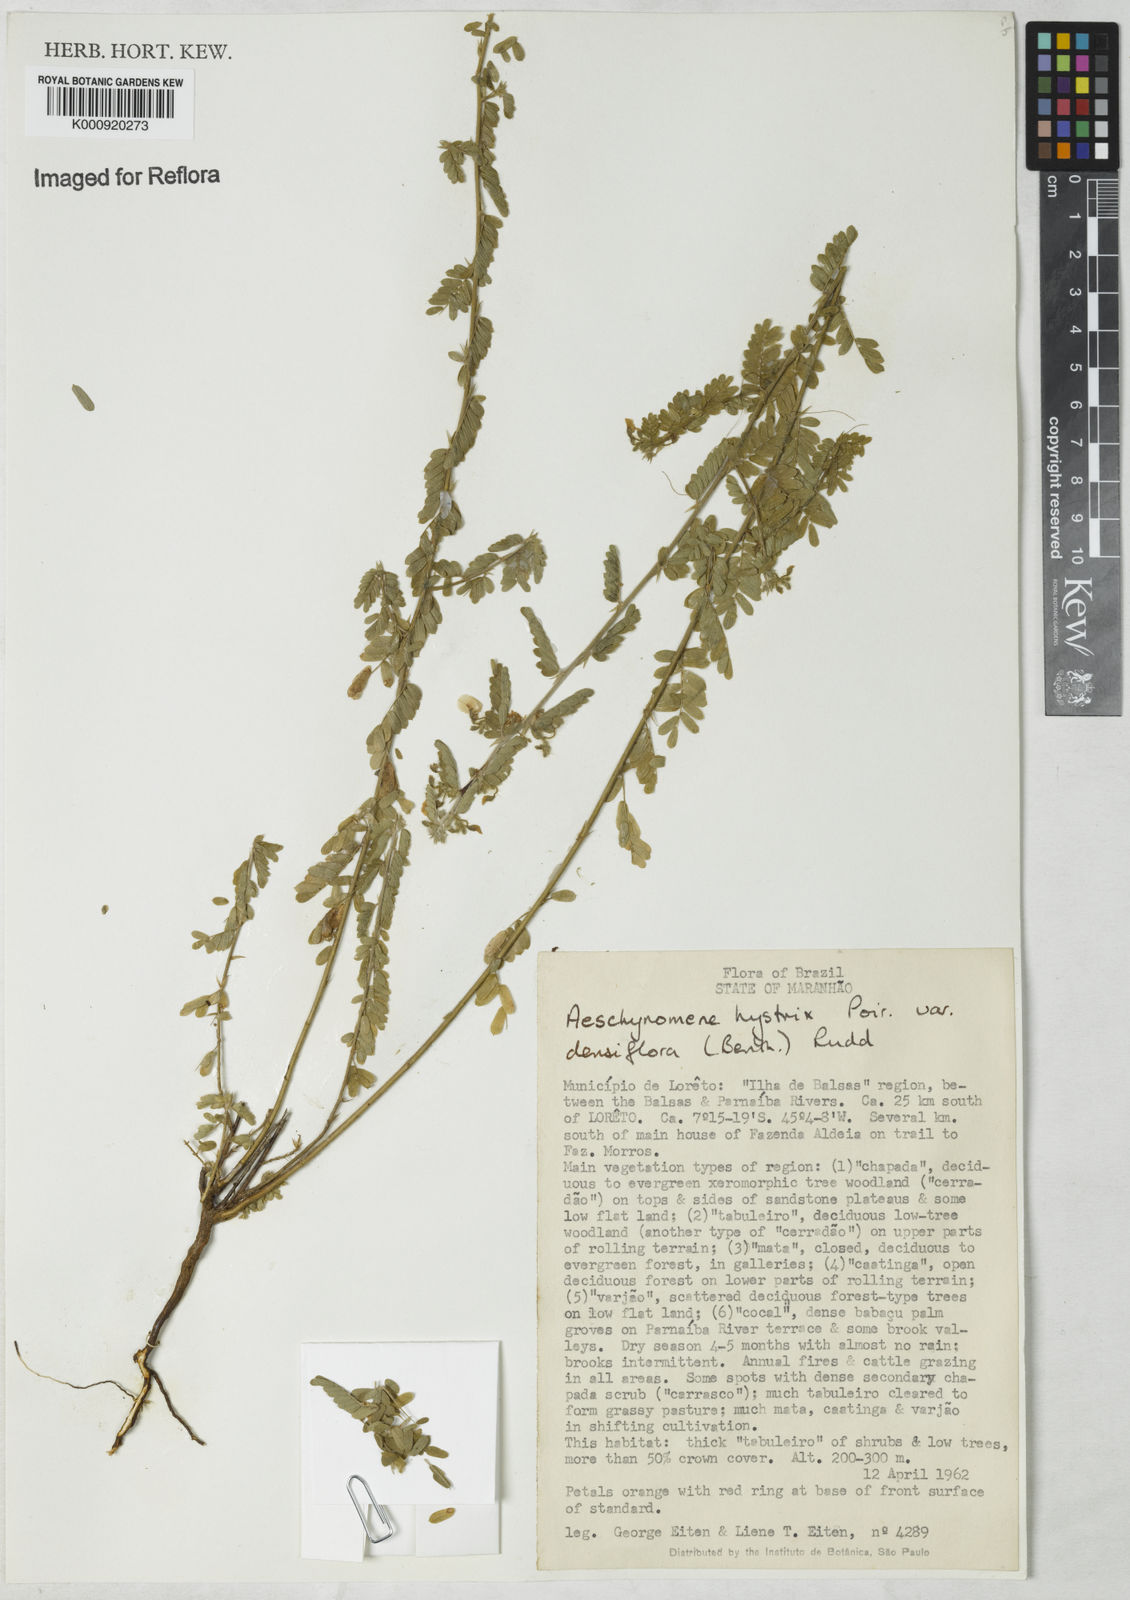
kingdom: Plantae
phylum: Tracheophyta
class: Magnoliopsida
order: Fabales
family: Fabaceae
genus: Ctenodon
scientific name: Ctenodon histrix
